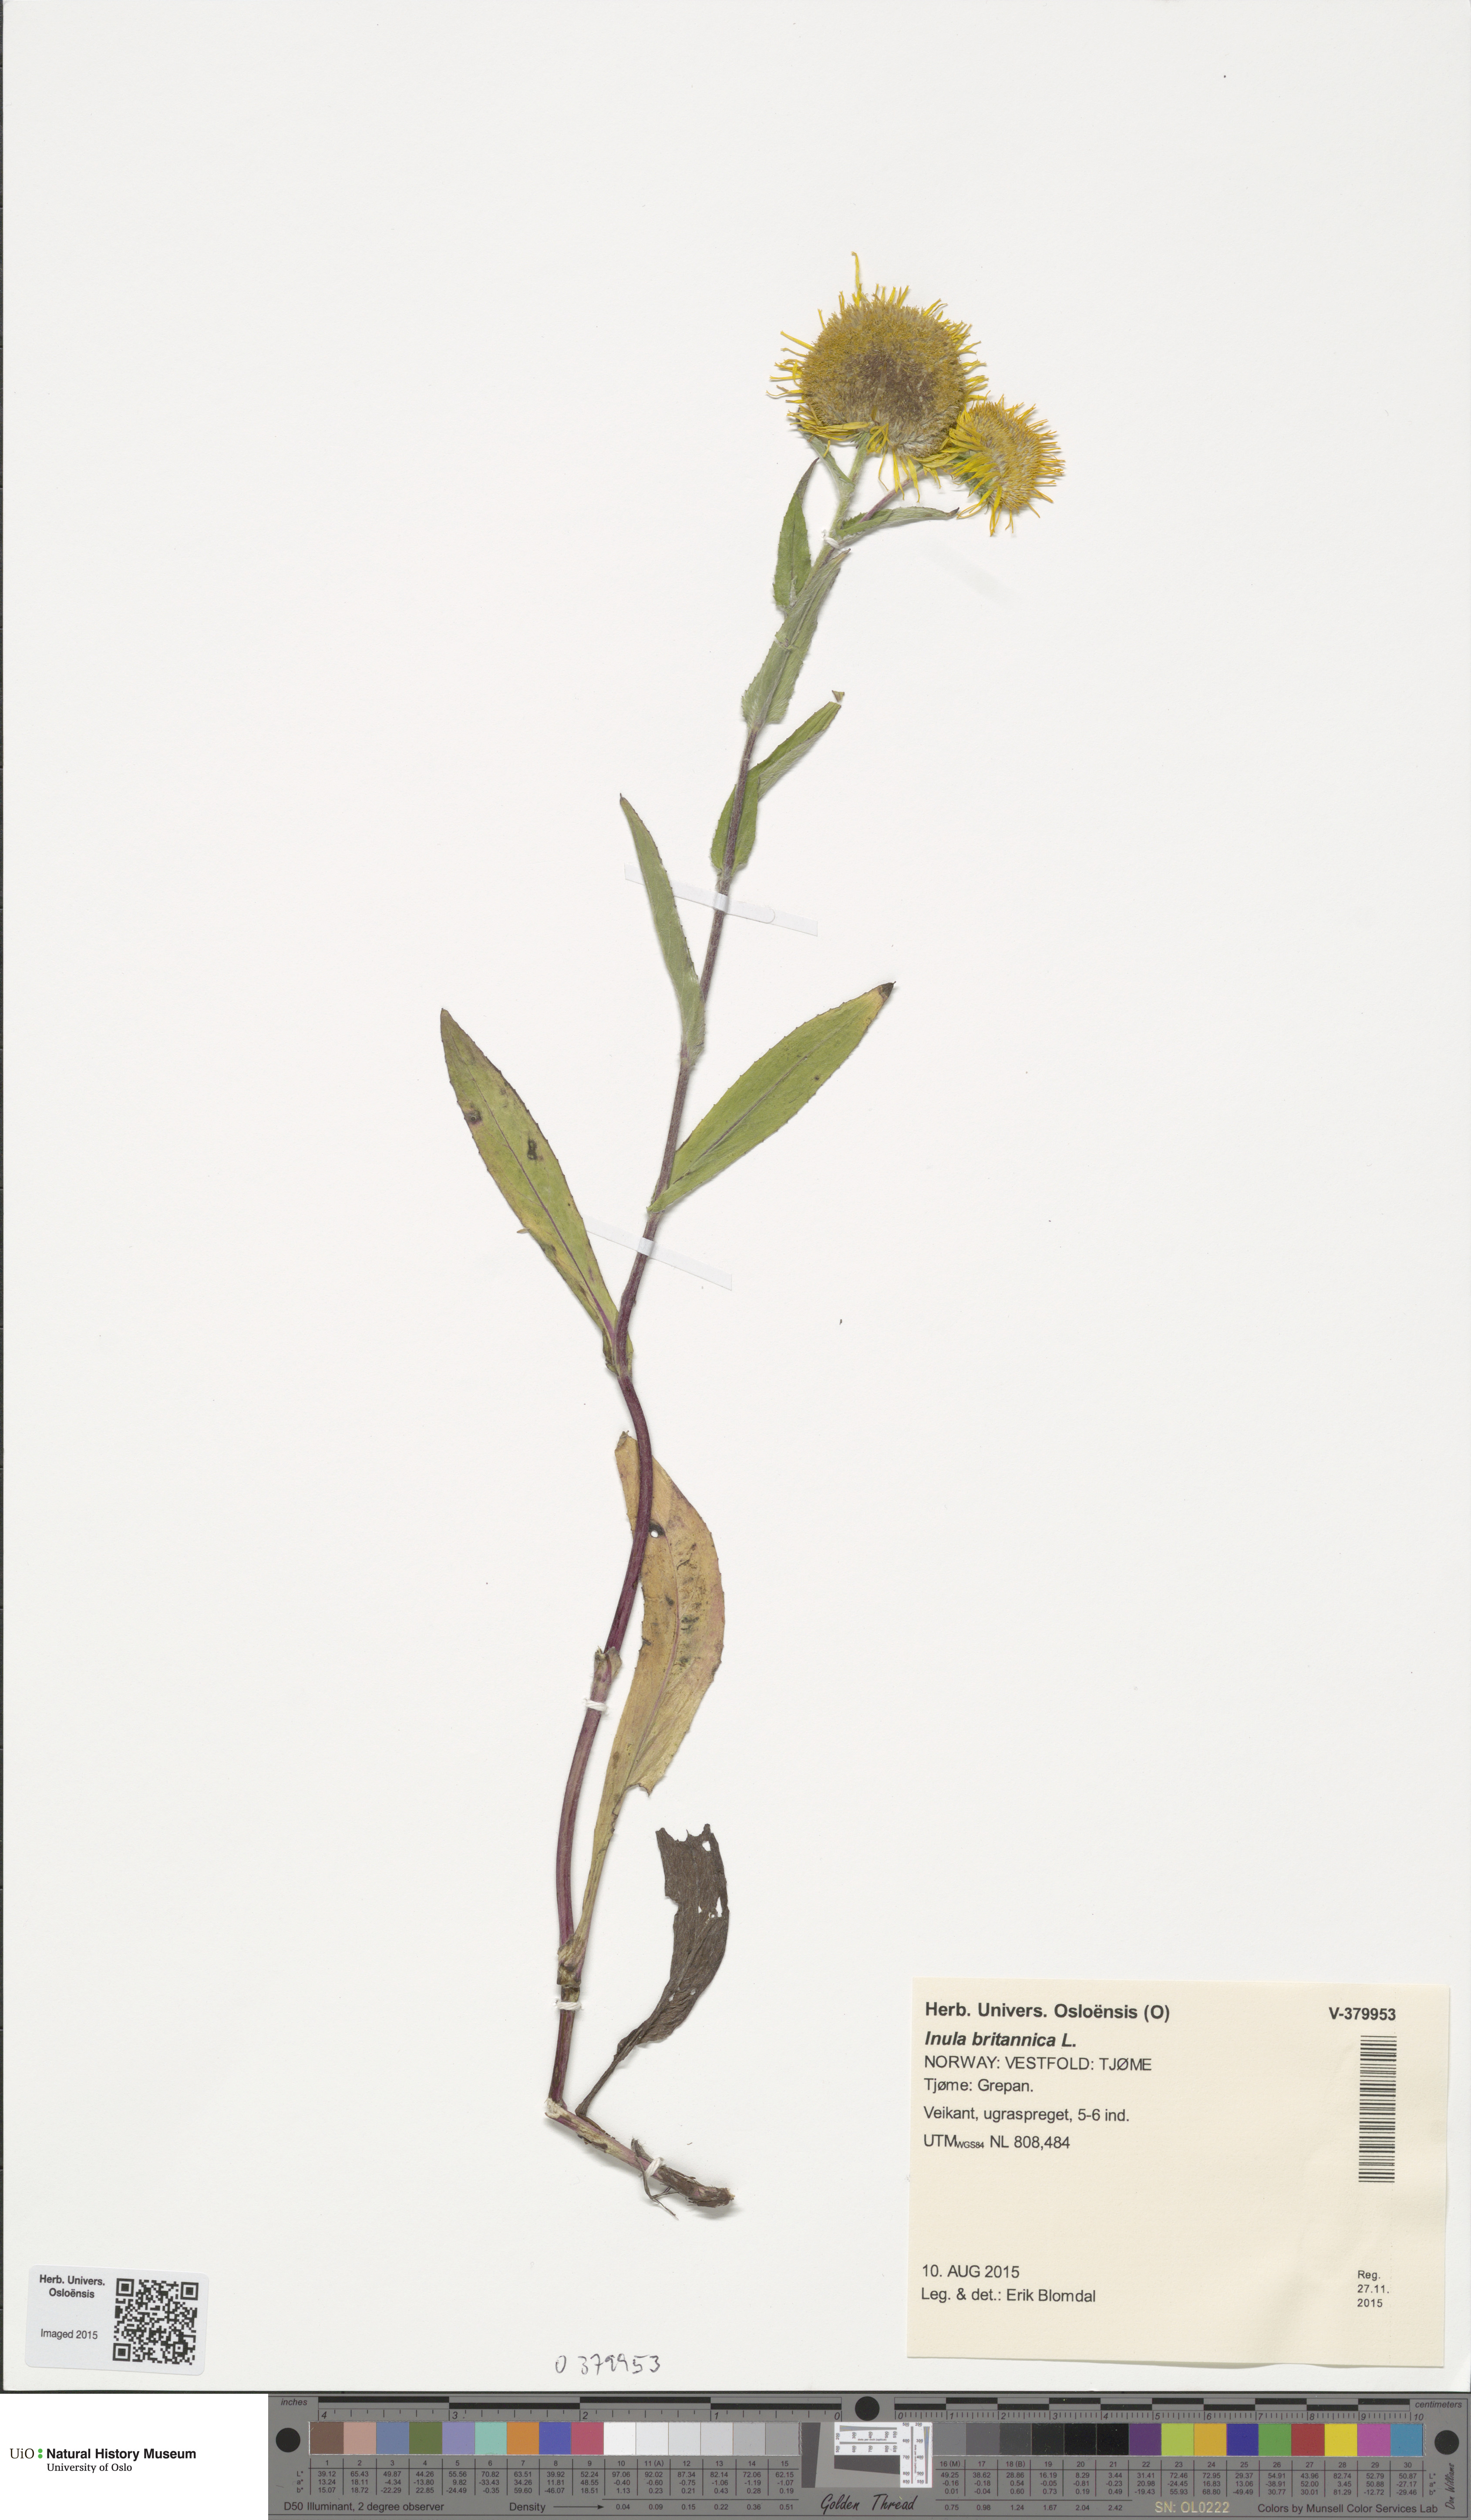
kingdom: Plantae
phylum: Tracheophyta
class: Magnoliopsida
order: Asterales
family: Asteraceae
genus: Pentanema
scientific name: Pentanema britannicum
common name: British elecampane
